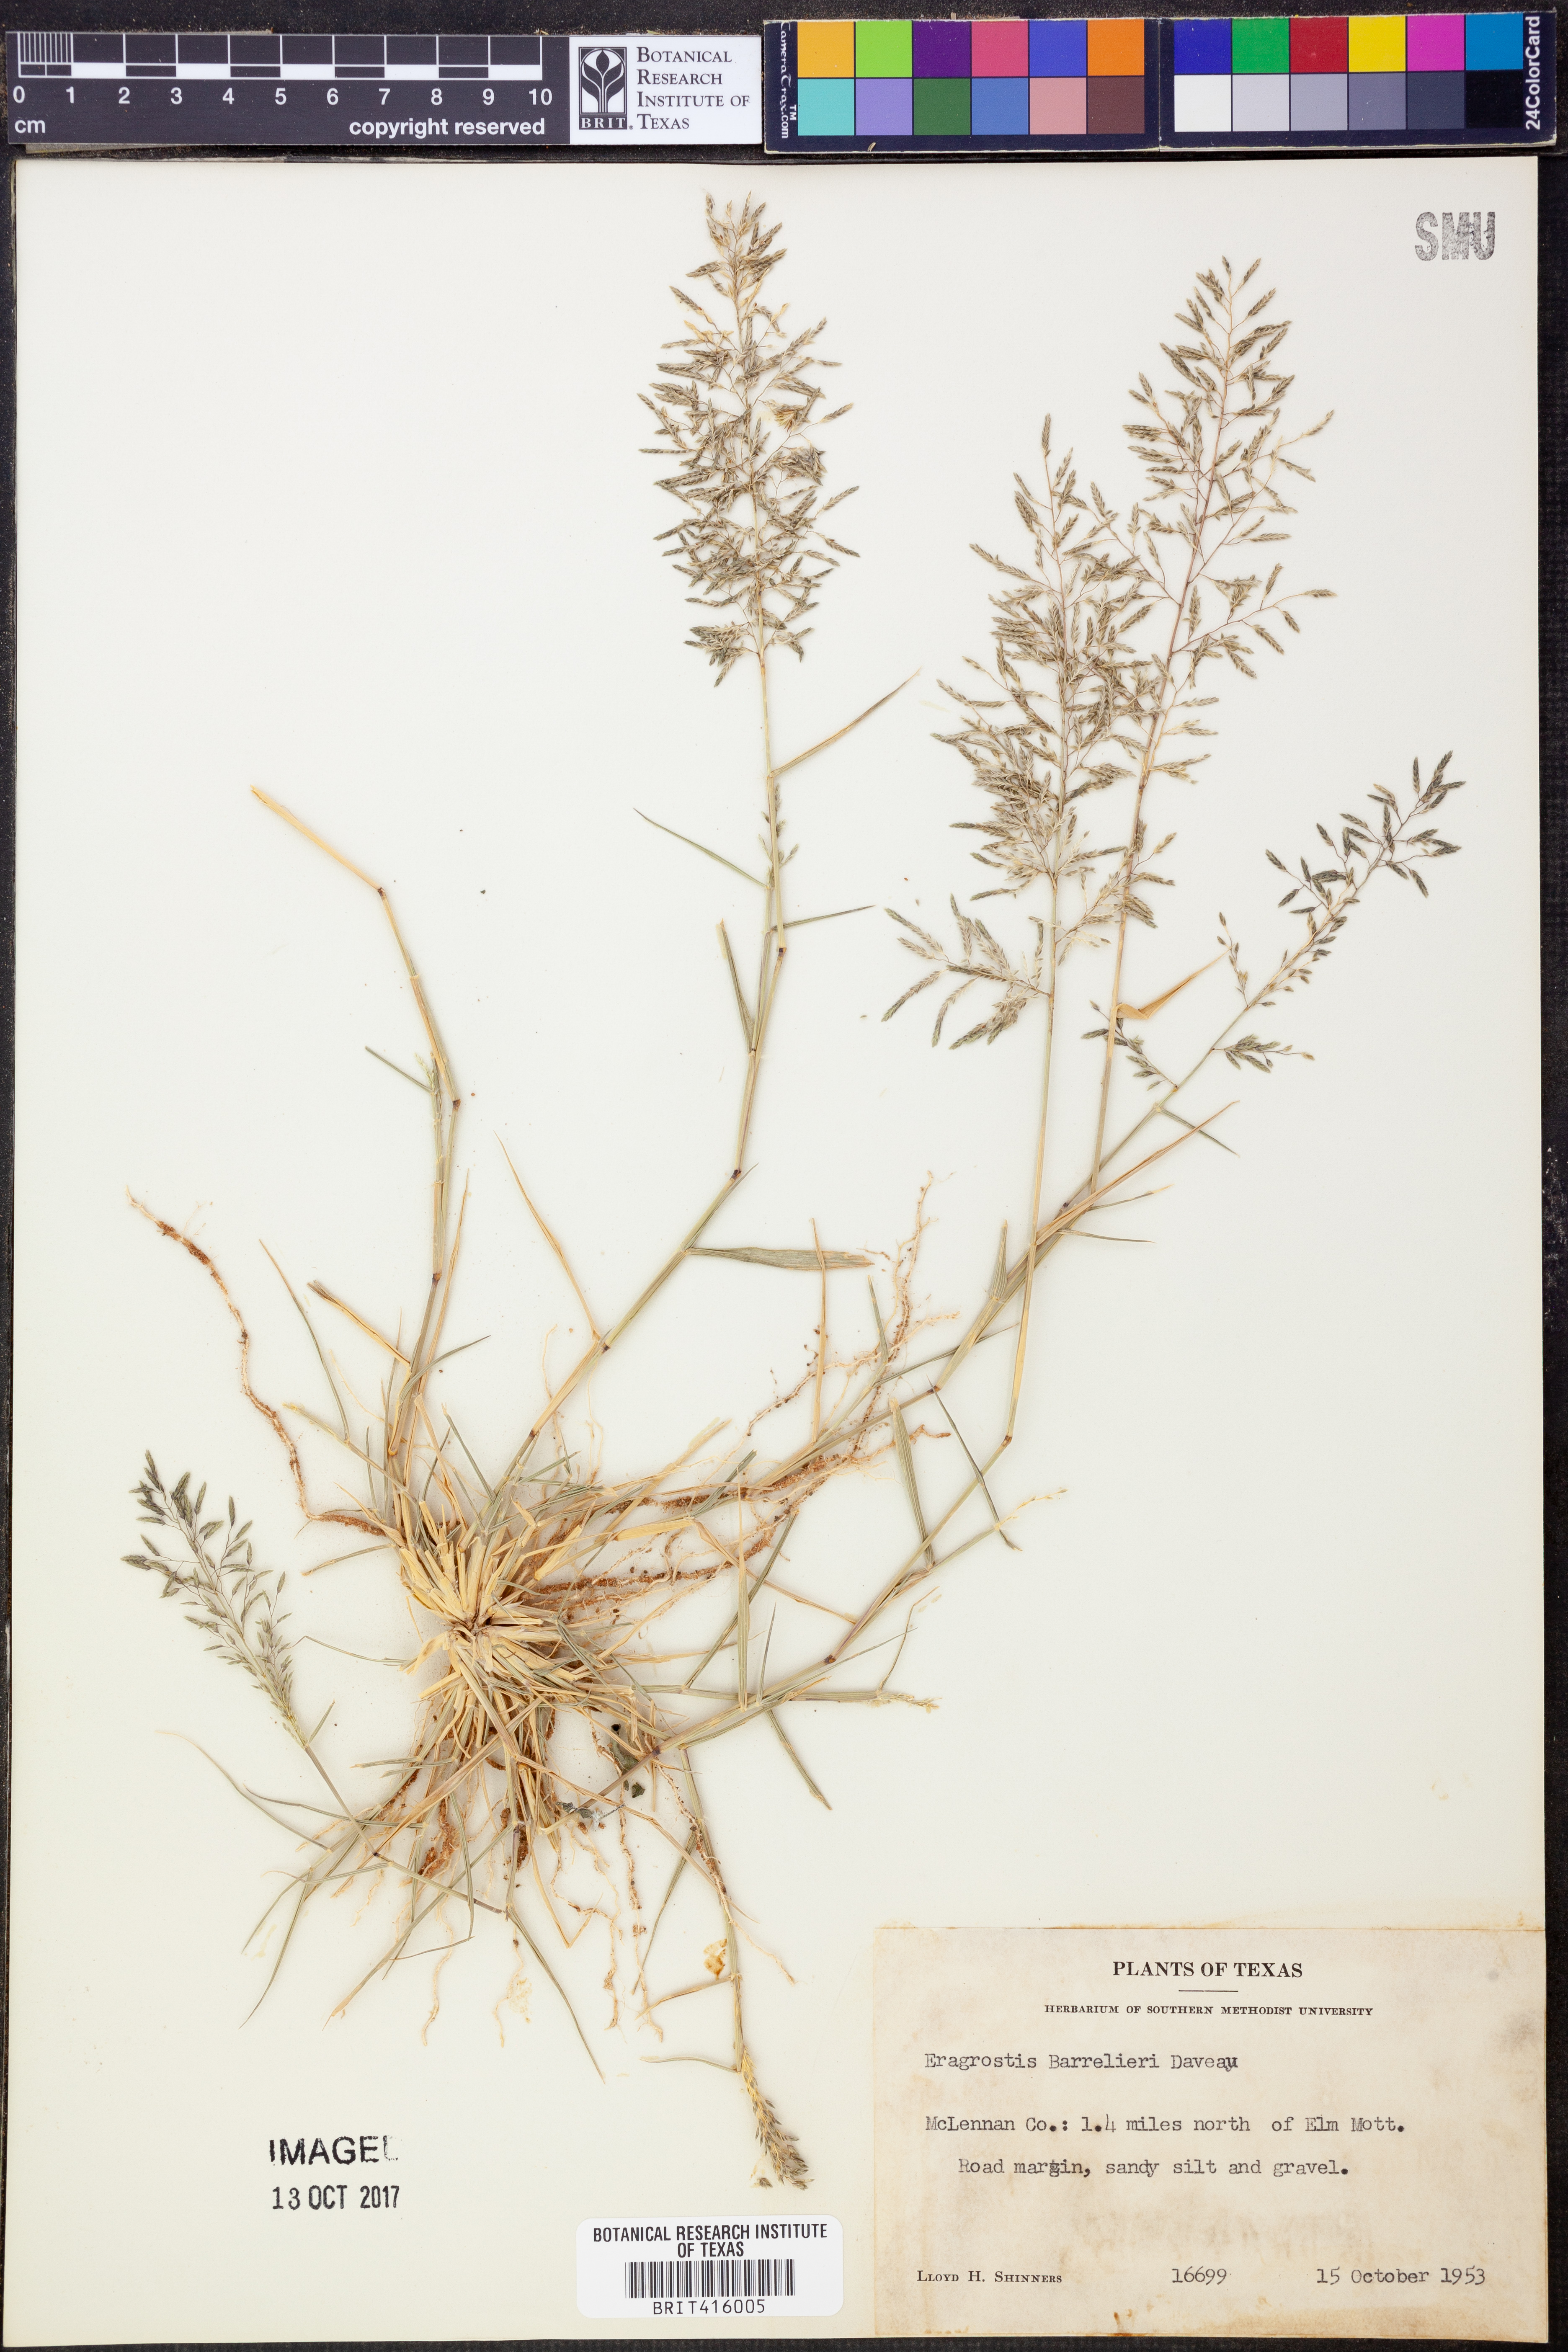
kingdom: Plantae
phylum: Tracheophyta
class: Liliopsida
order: Poales
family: Poaceae
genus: Eragrostis
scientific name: Eragrostis barrelieri
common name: Mediterranean lovegrass
